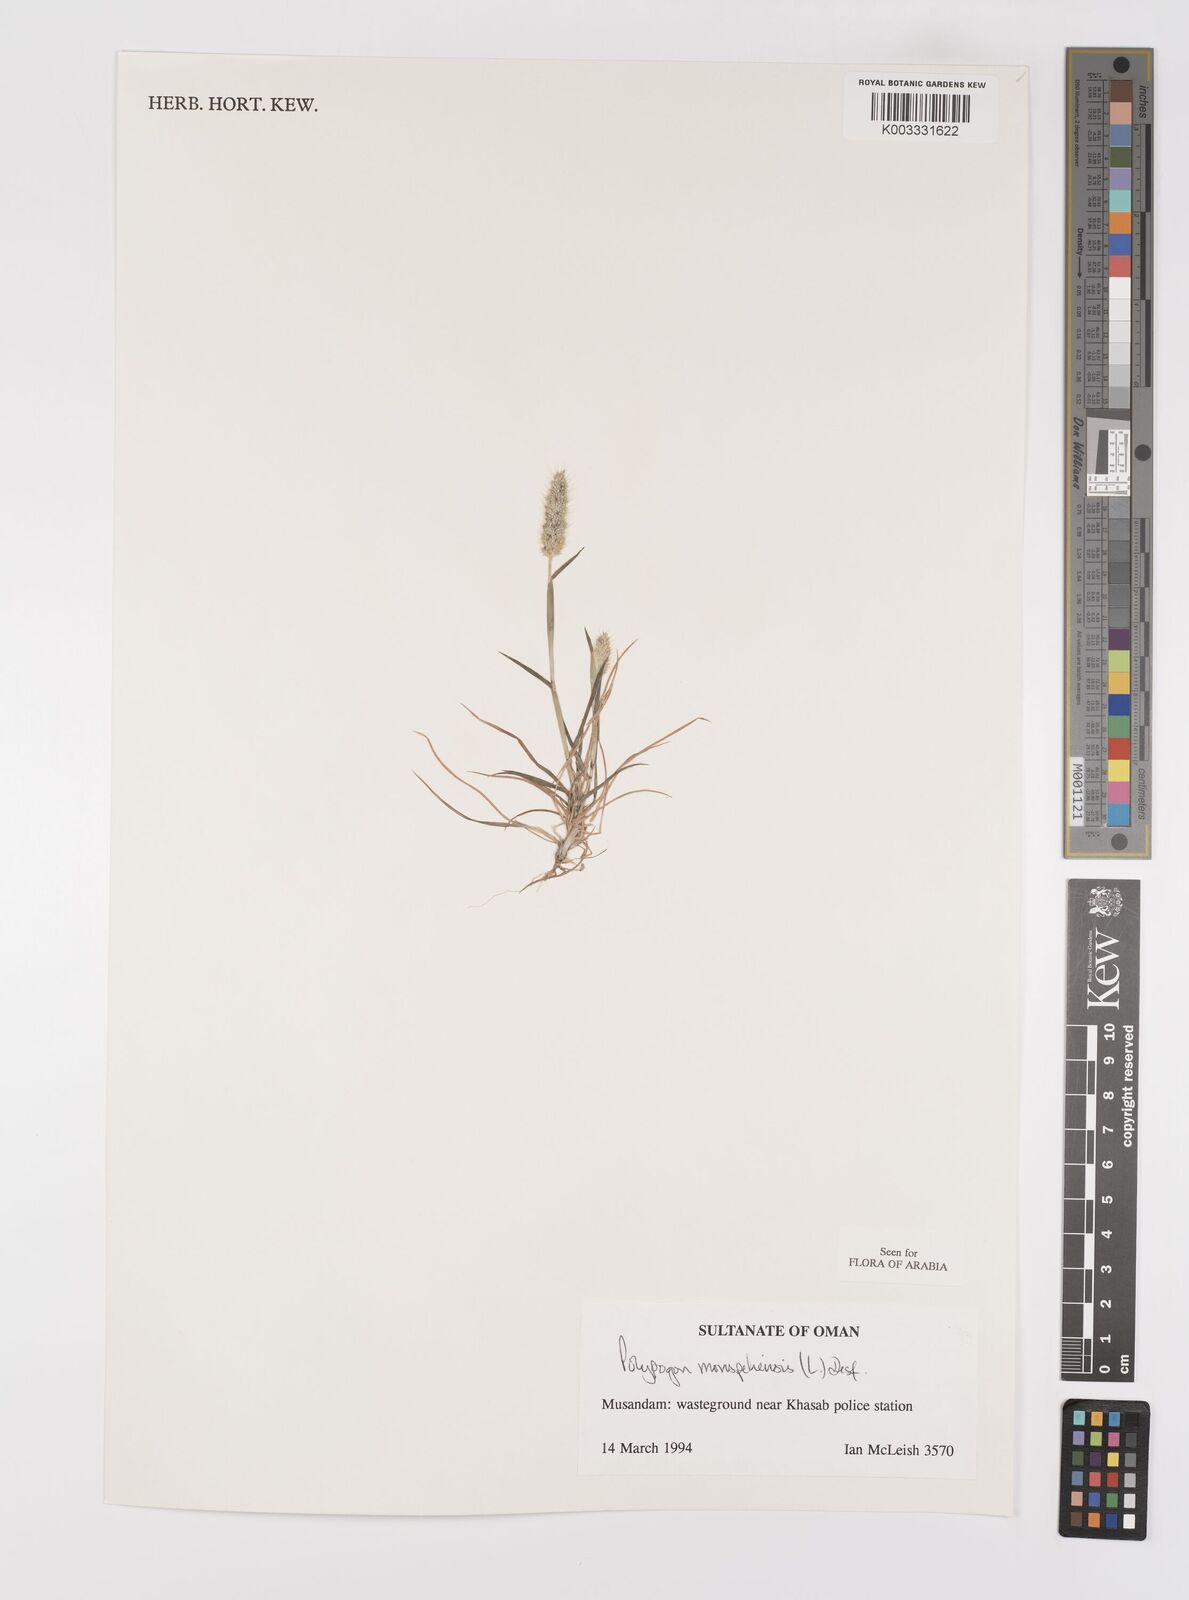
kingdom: Plantae
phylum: Tracheophyta
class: Liliopsida
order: Poales
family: Poaceae
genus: Polypogon
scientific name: Polypogon monspeliensis
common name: Annual rabbitsfoot grass
